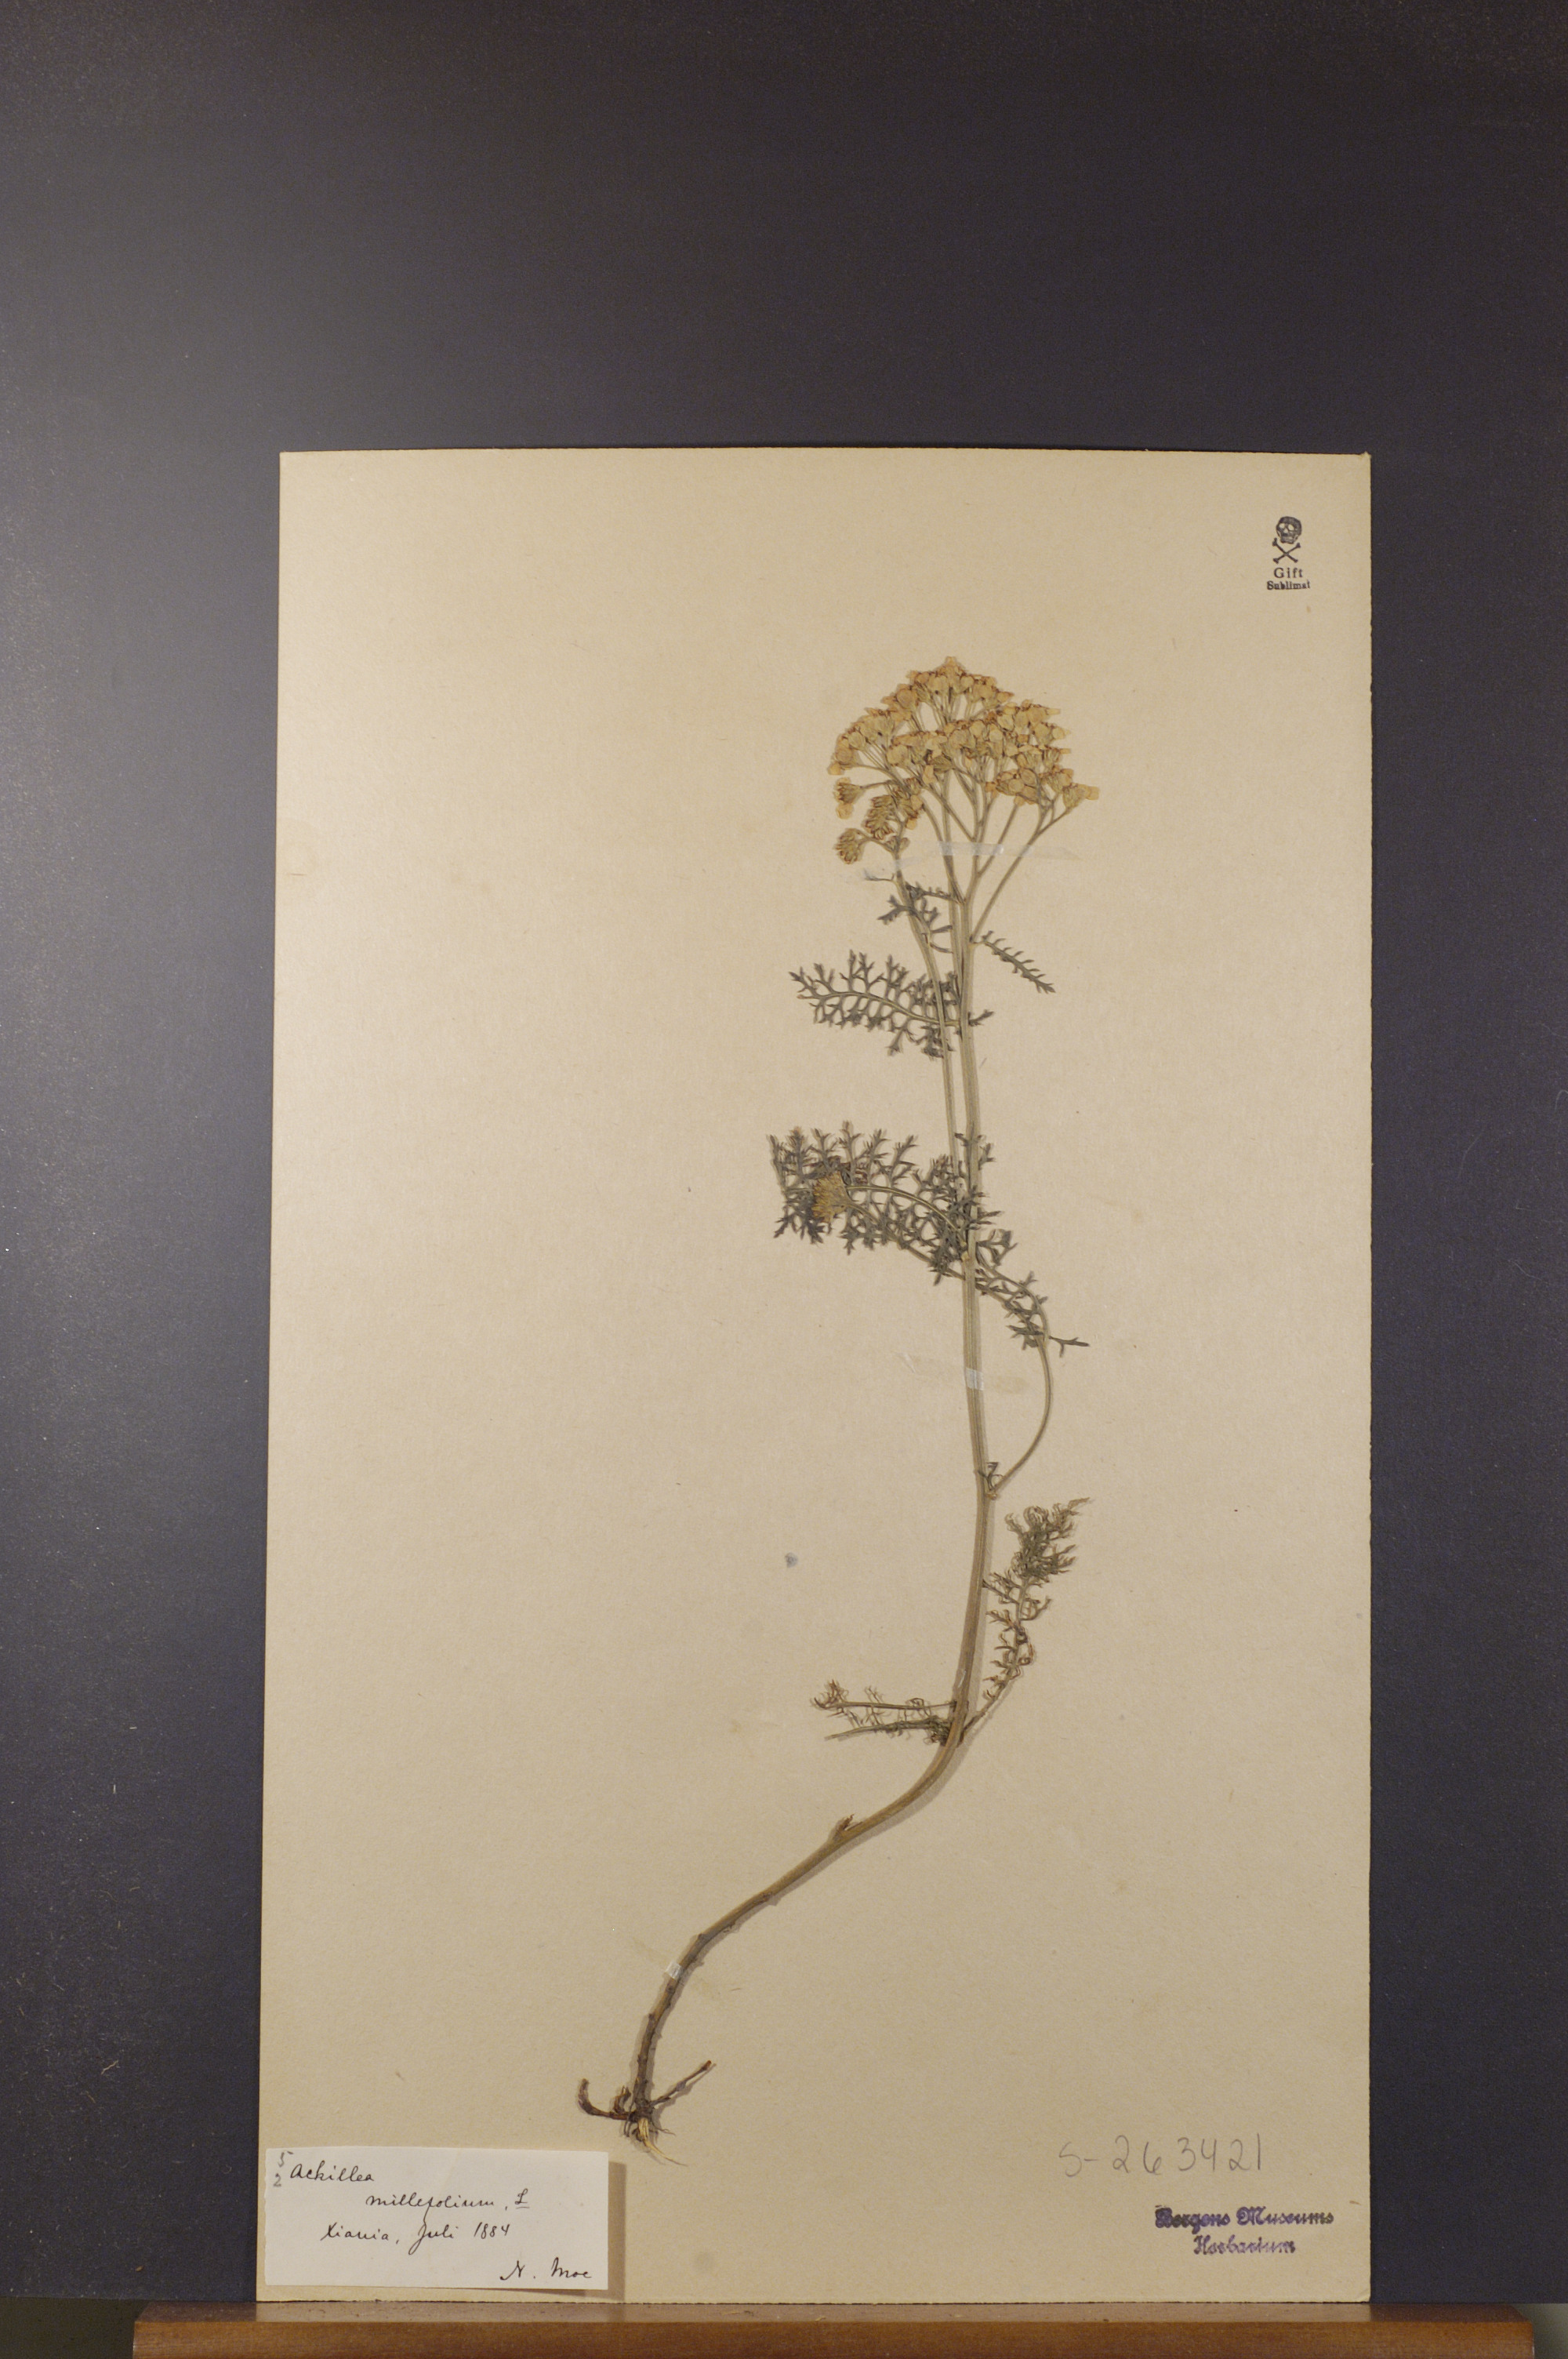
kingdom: Plantae
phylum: Tracheophyta
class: Magnoliopsida
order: Asterales
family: Asteraceae
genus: Achillea
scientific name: Achillea millefolium
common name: Yarrow
